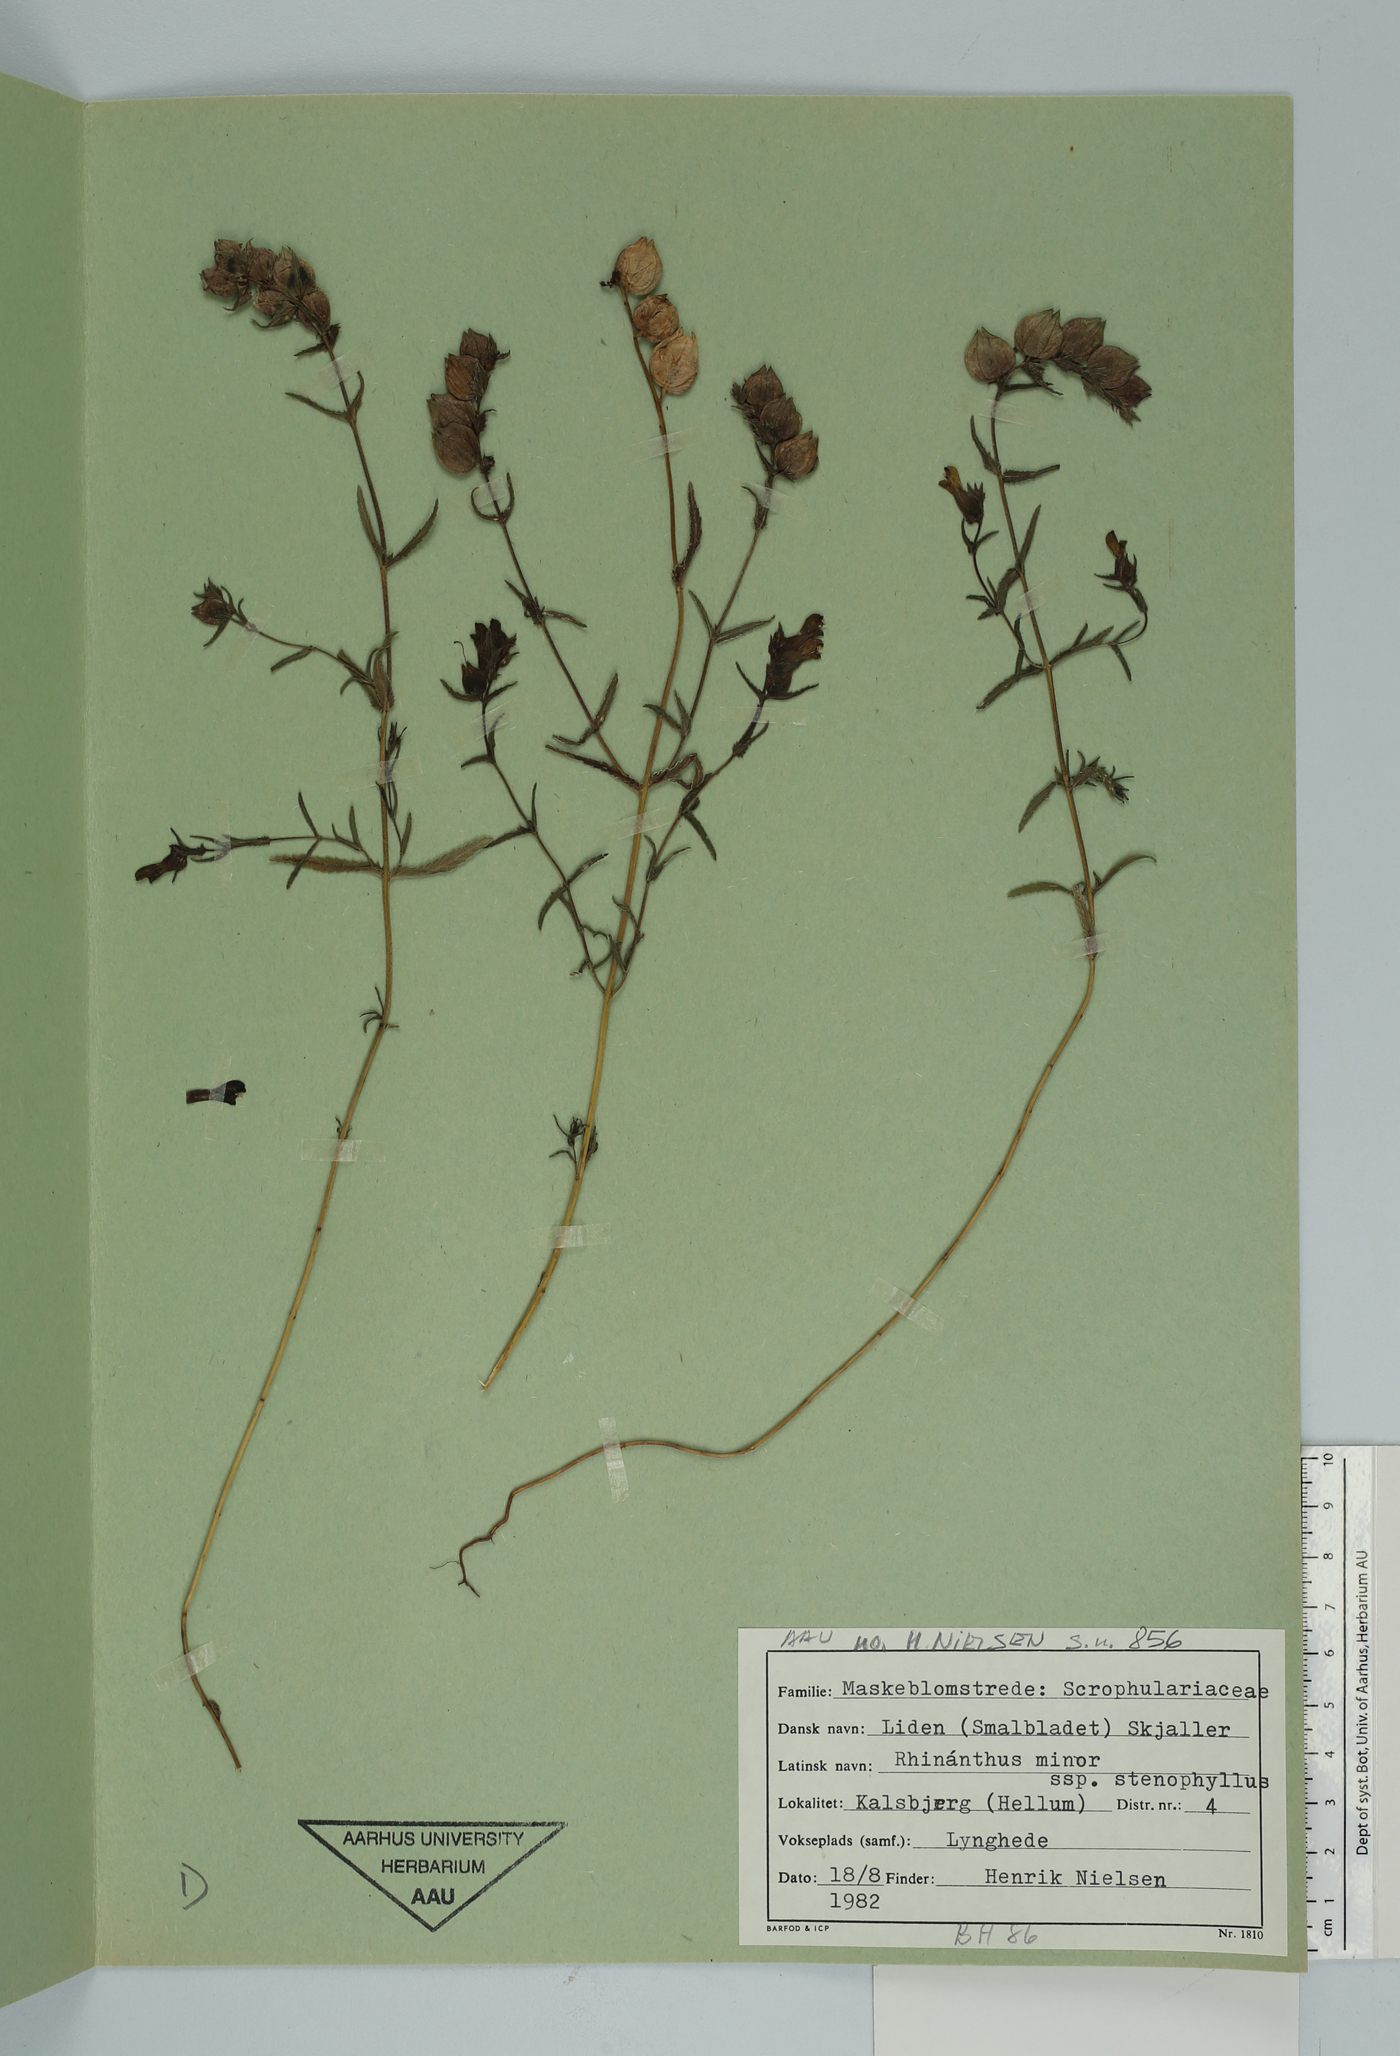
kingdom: Plantae
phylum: Tracheophyta
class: Magnoliopsida
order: Lamiales
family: Orobanchaceae
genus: Rhinanthus
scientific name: Rhinanthus minor
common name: Yellow-rattle
